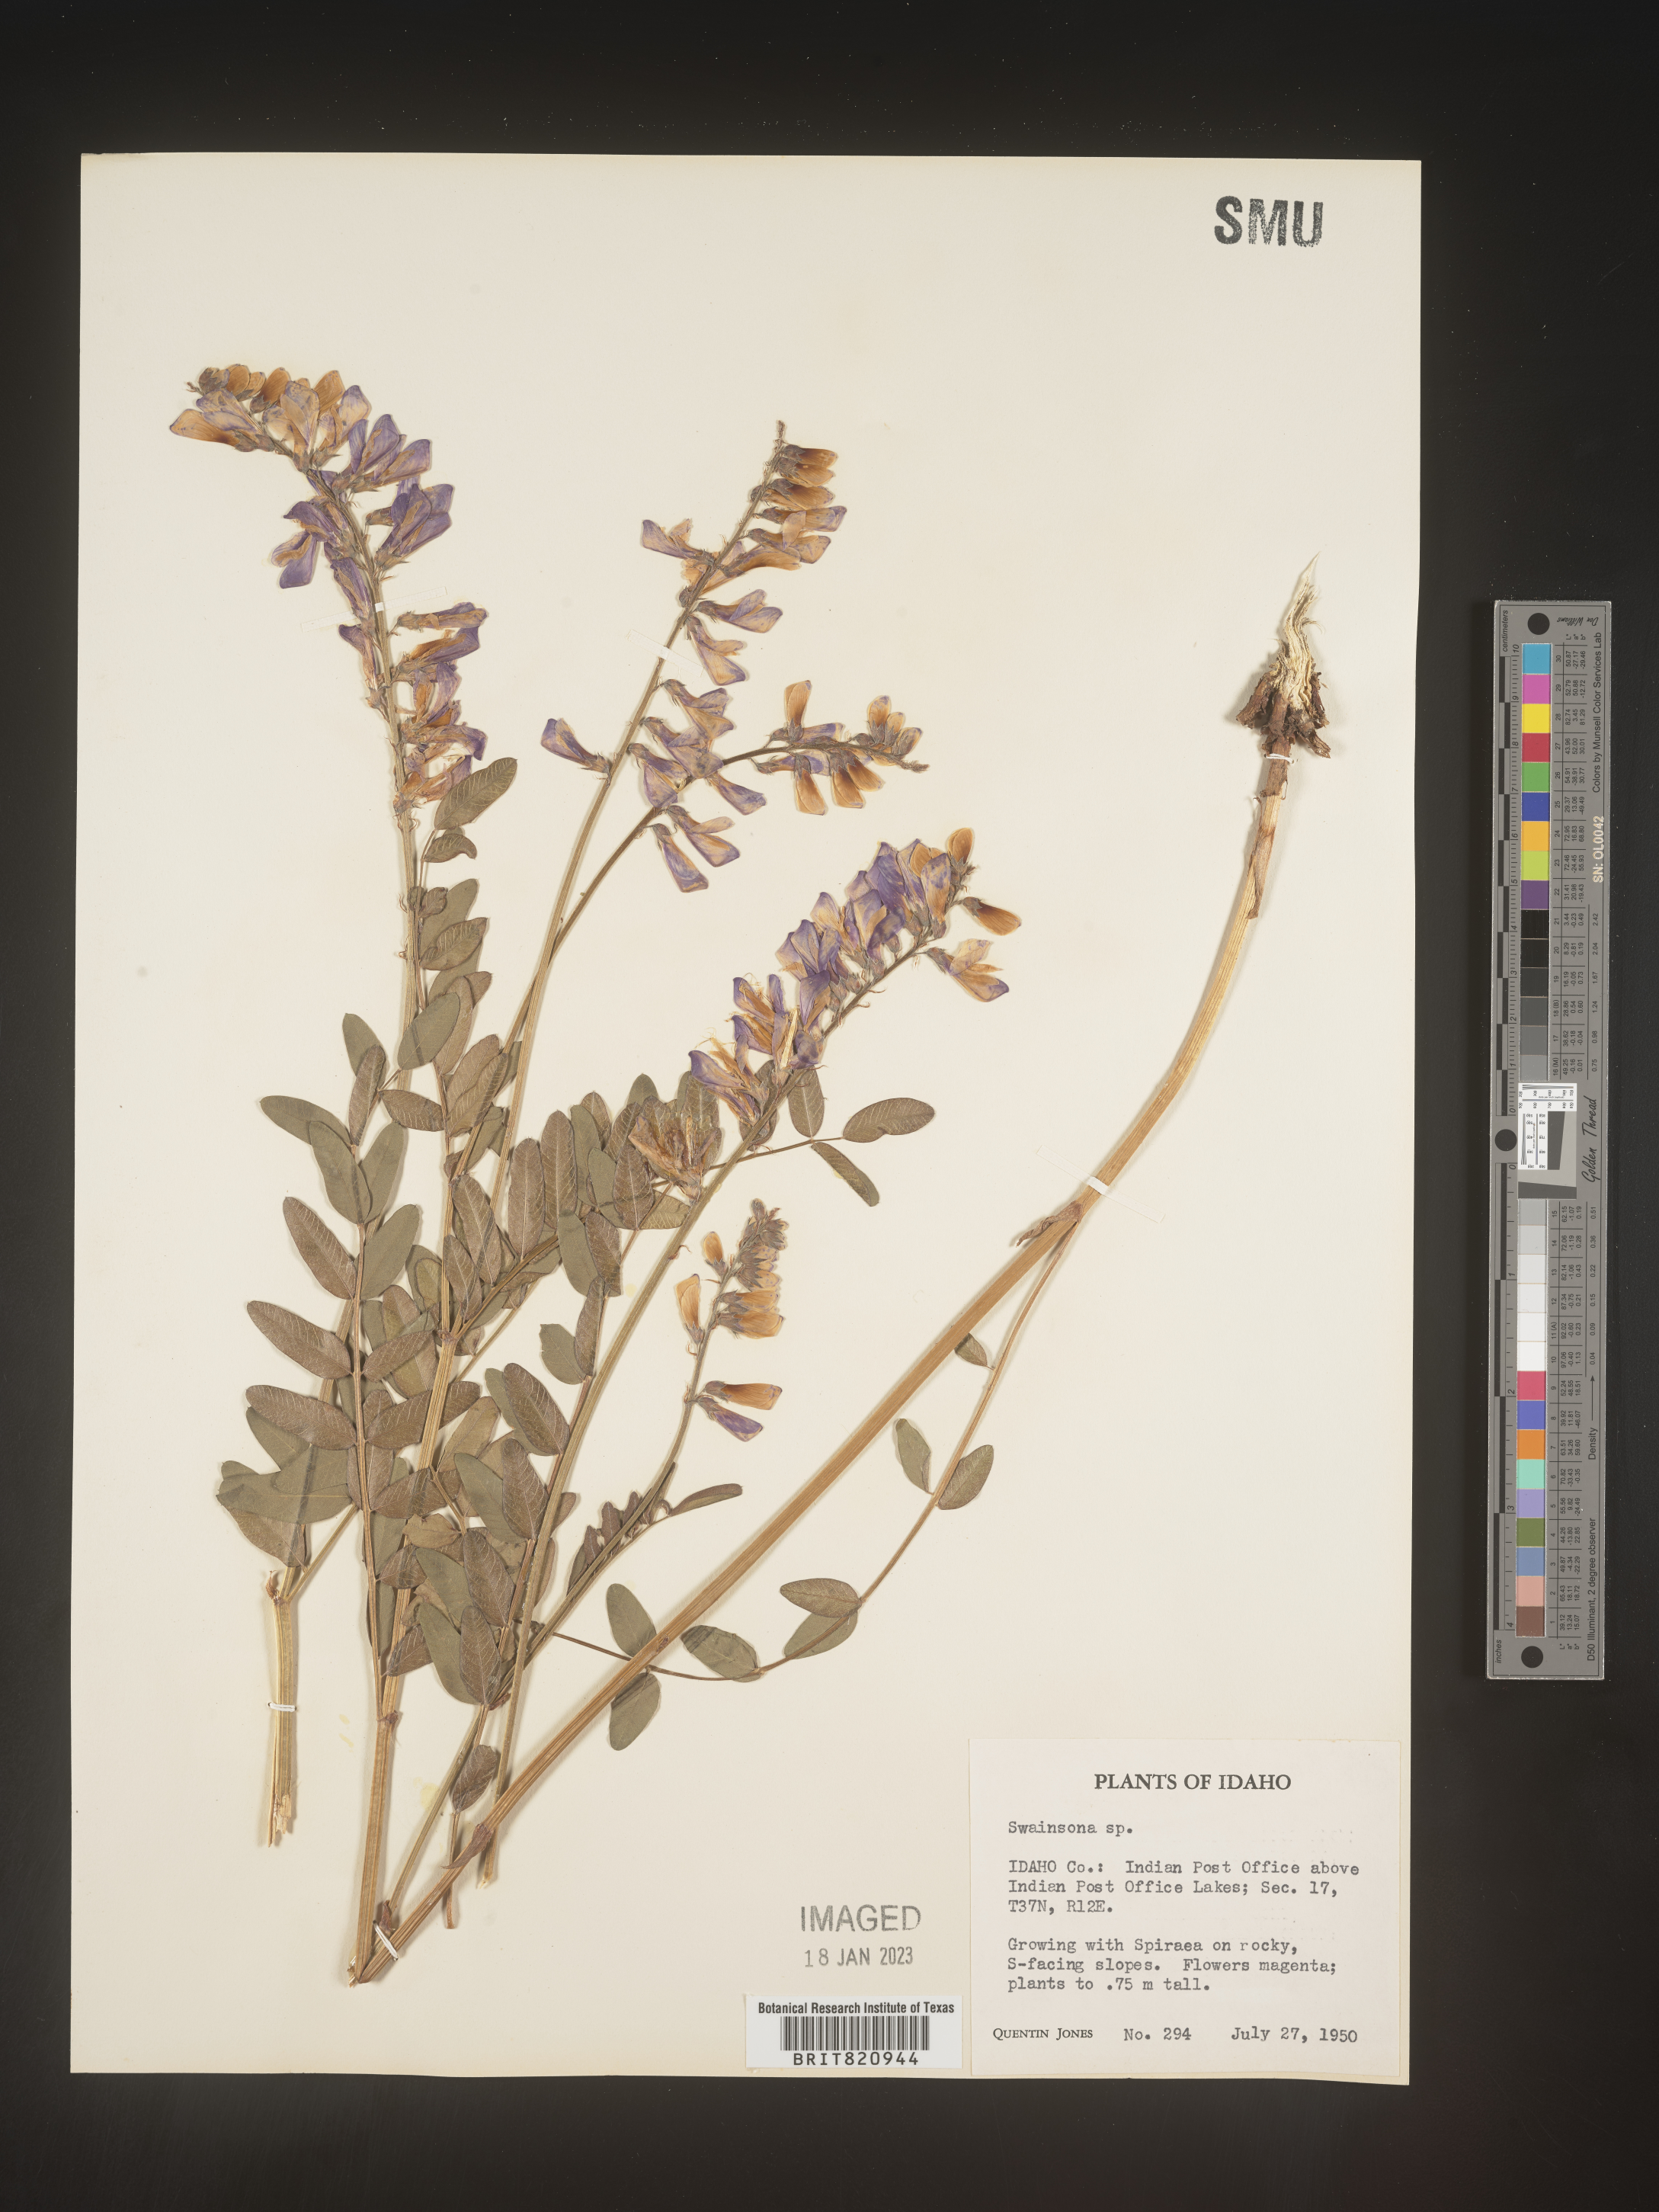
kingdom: Plantae
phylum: Tracheophyta
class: Magnoliopsida
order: Fabales
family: Fabaceae
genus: Hedysarum
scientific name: Hedysarum boreale
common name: Northern sweet-vetch
